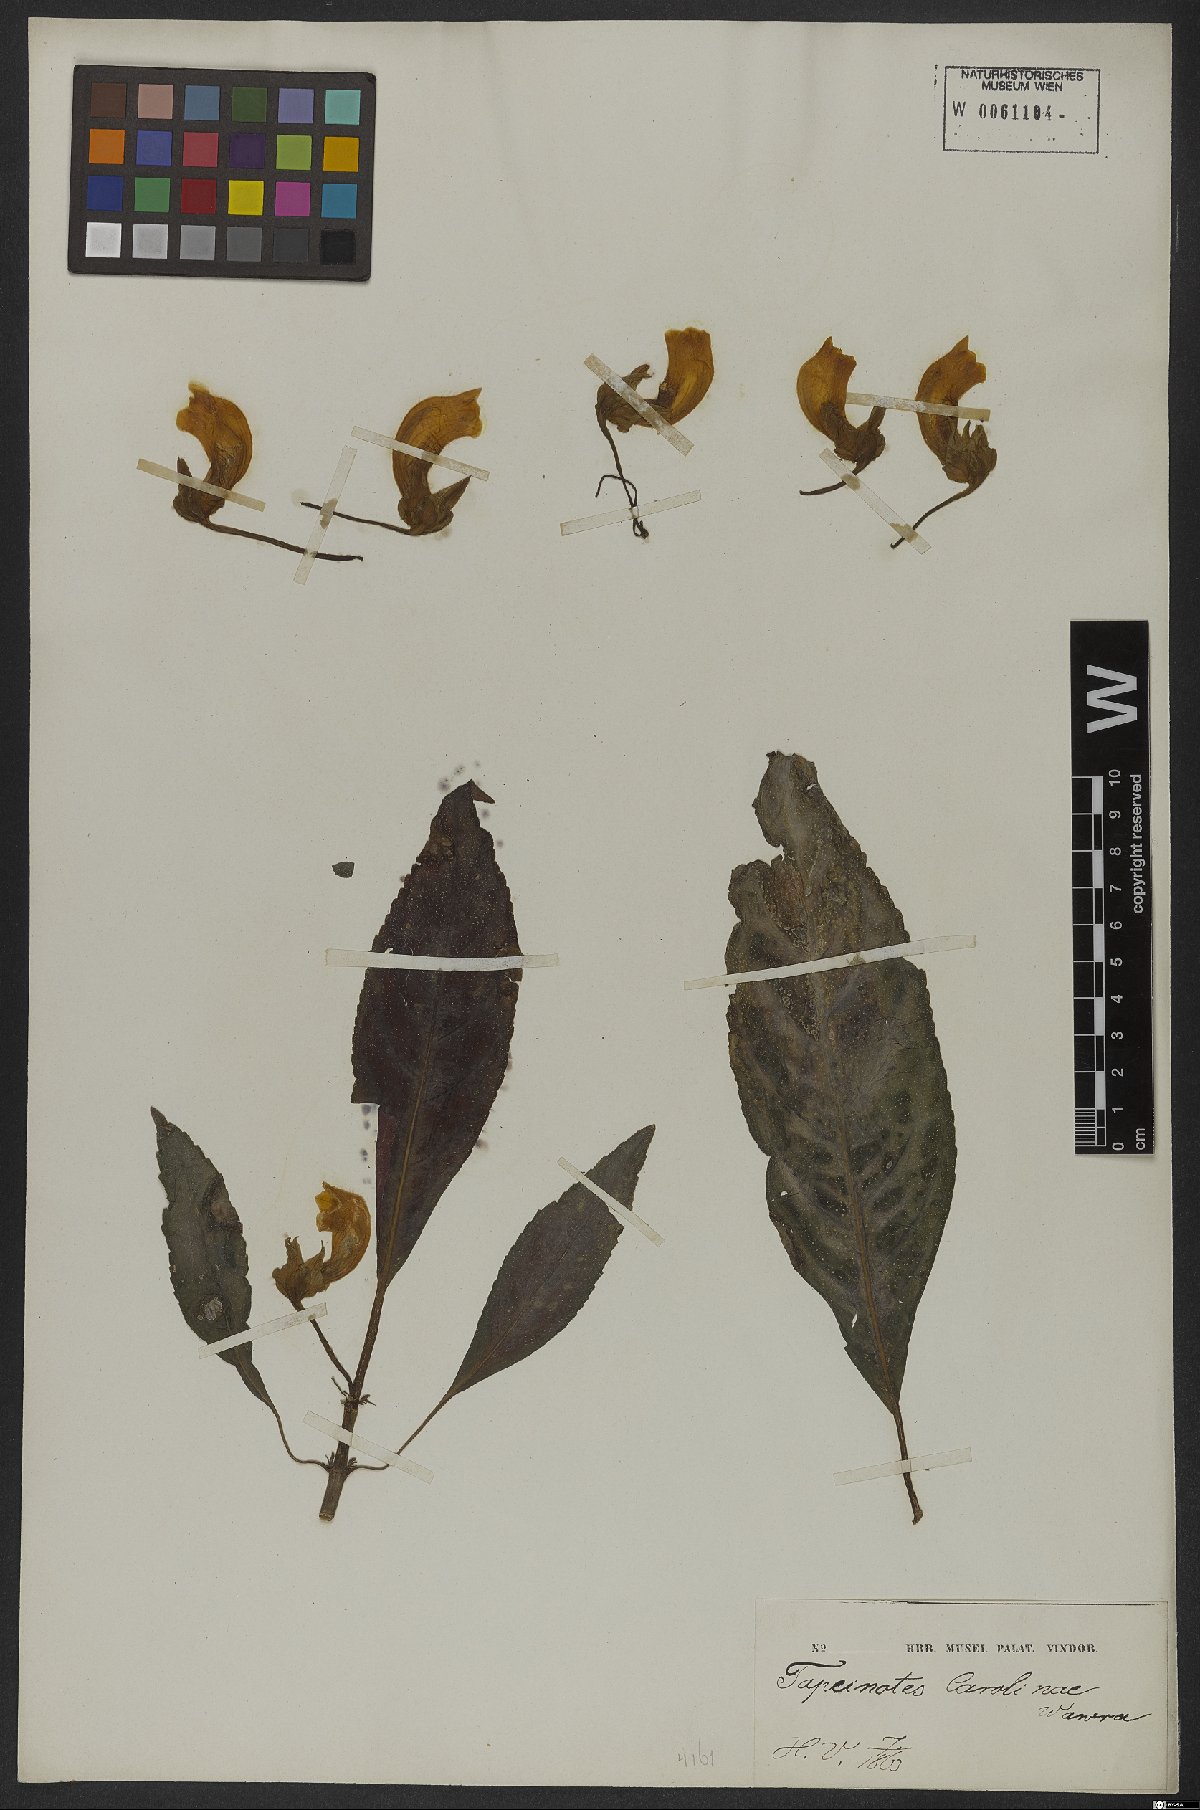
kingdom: Plantae
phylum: Tracheophyta
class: Magnoliopsida
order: Lamiales
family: Gesneriaceae
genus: Sinningia
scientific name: Sinningia barbata
